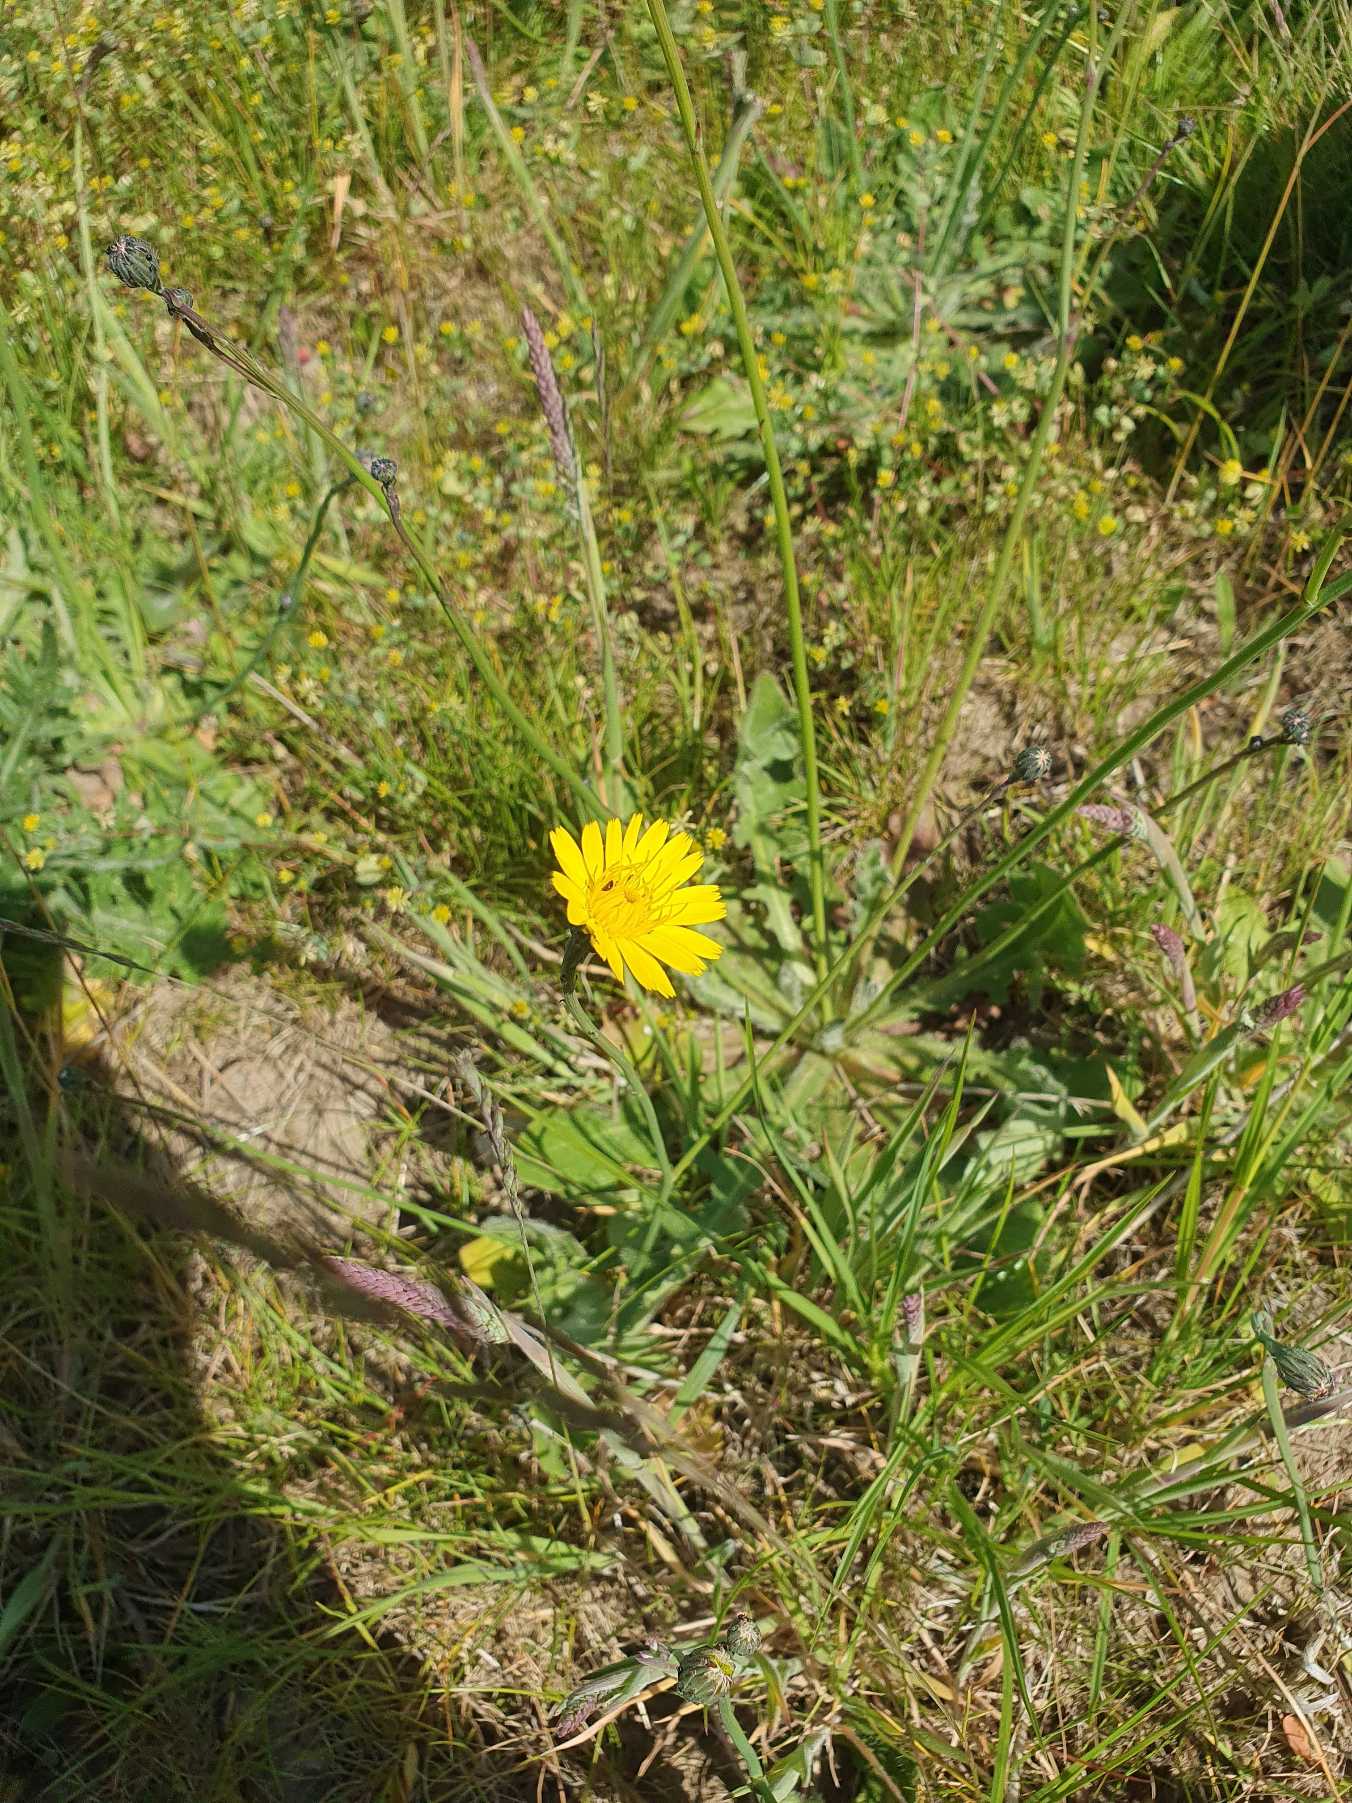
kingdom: Plantae
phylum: Tracheophyta
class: Magnoliopsida
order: Asterales
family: Asteraceae
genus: Hypochaeris
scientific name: Hypochaeris radicata
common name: Almindelig kongepen
